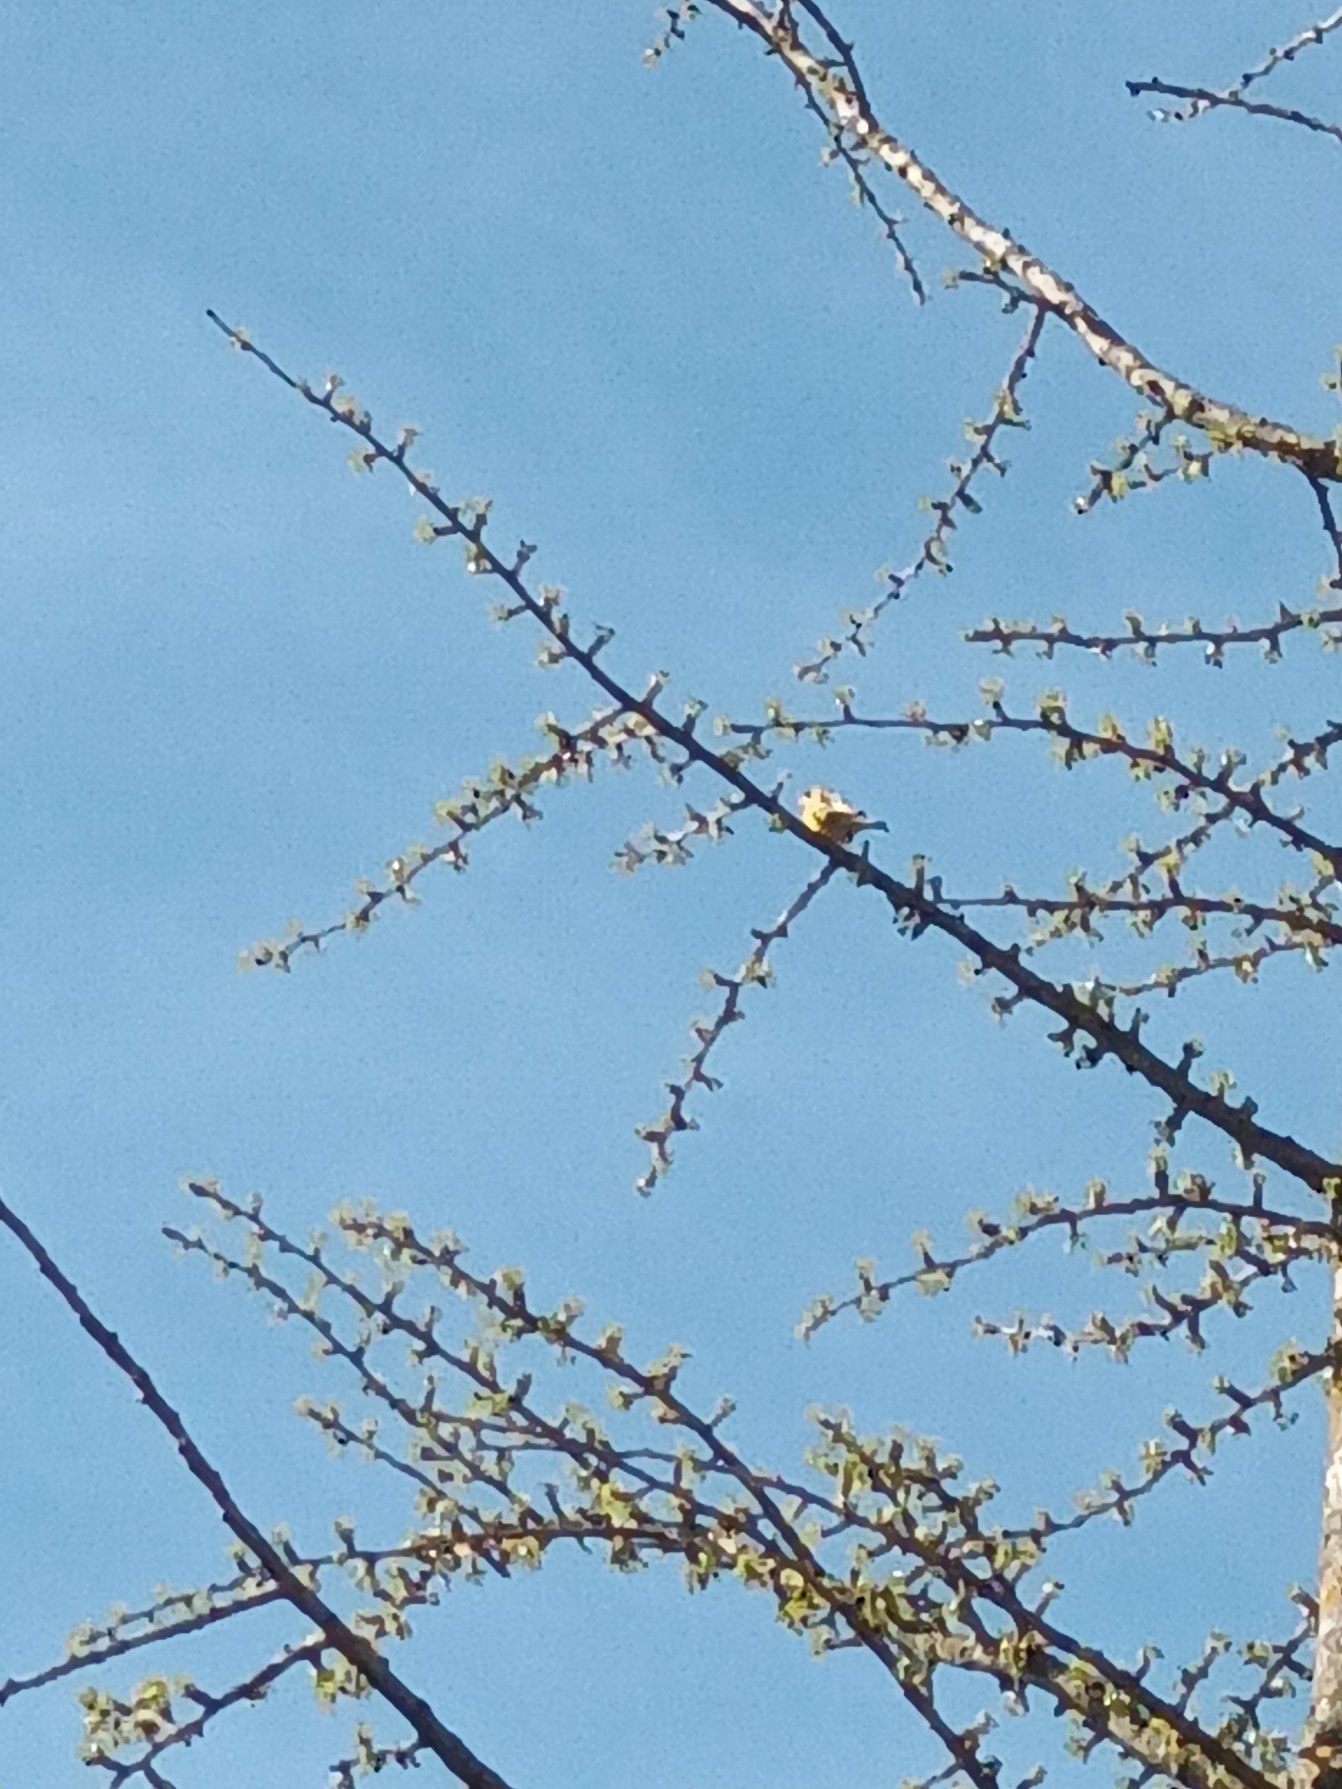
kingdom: Plantae
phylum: Tracheophyta
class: Liliopsida
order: Poales
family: Poaceae
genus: Chloris
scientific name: Chloris chloris
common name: Grønirisk
